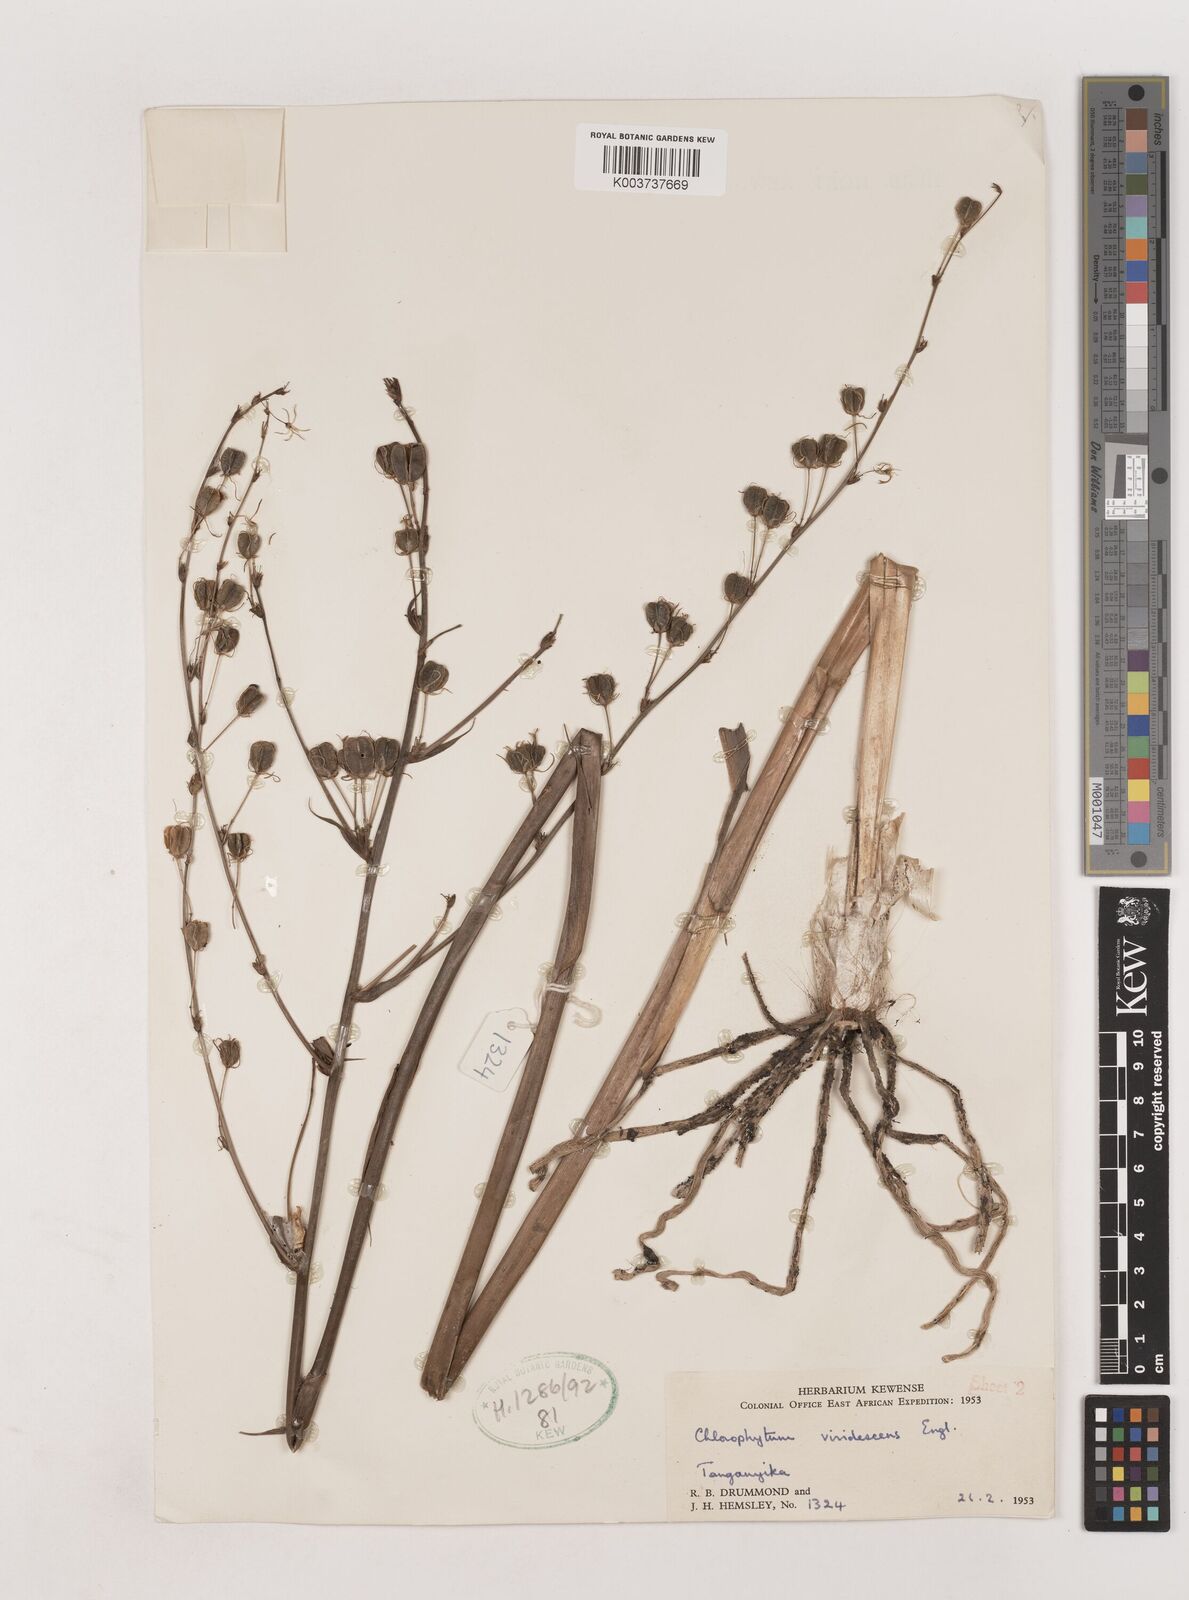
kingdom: Plantae
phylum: Tracheophyta
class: Liliopsida
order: Asparagales
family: Asparagaceae
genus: Chlorophytum
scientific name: Chlorophytum viridescens
